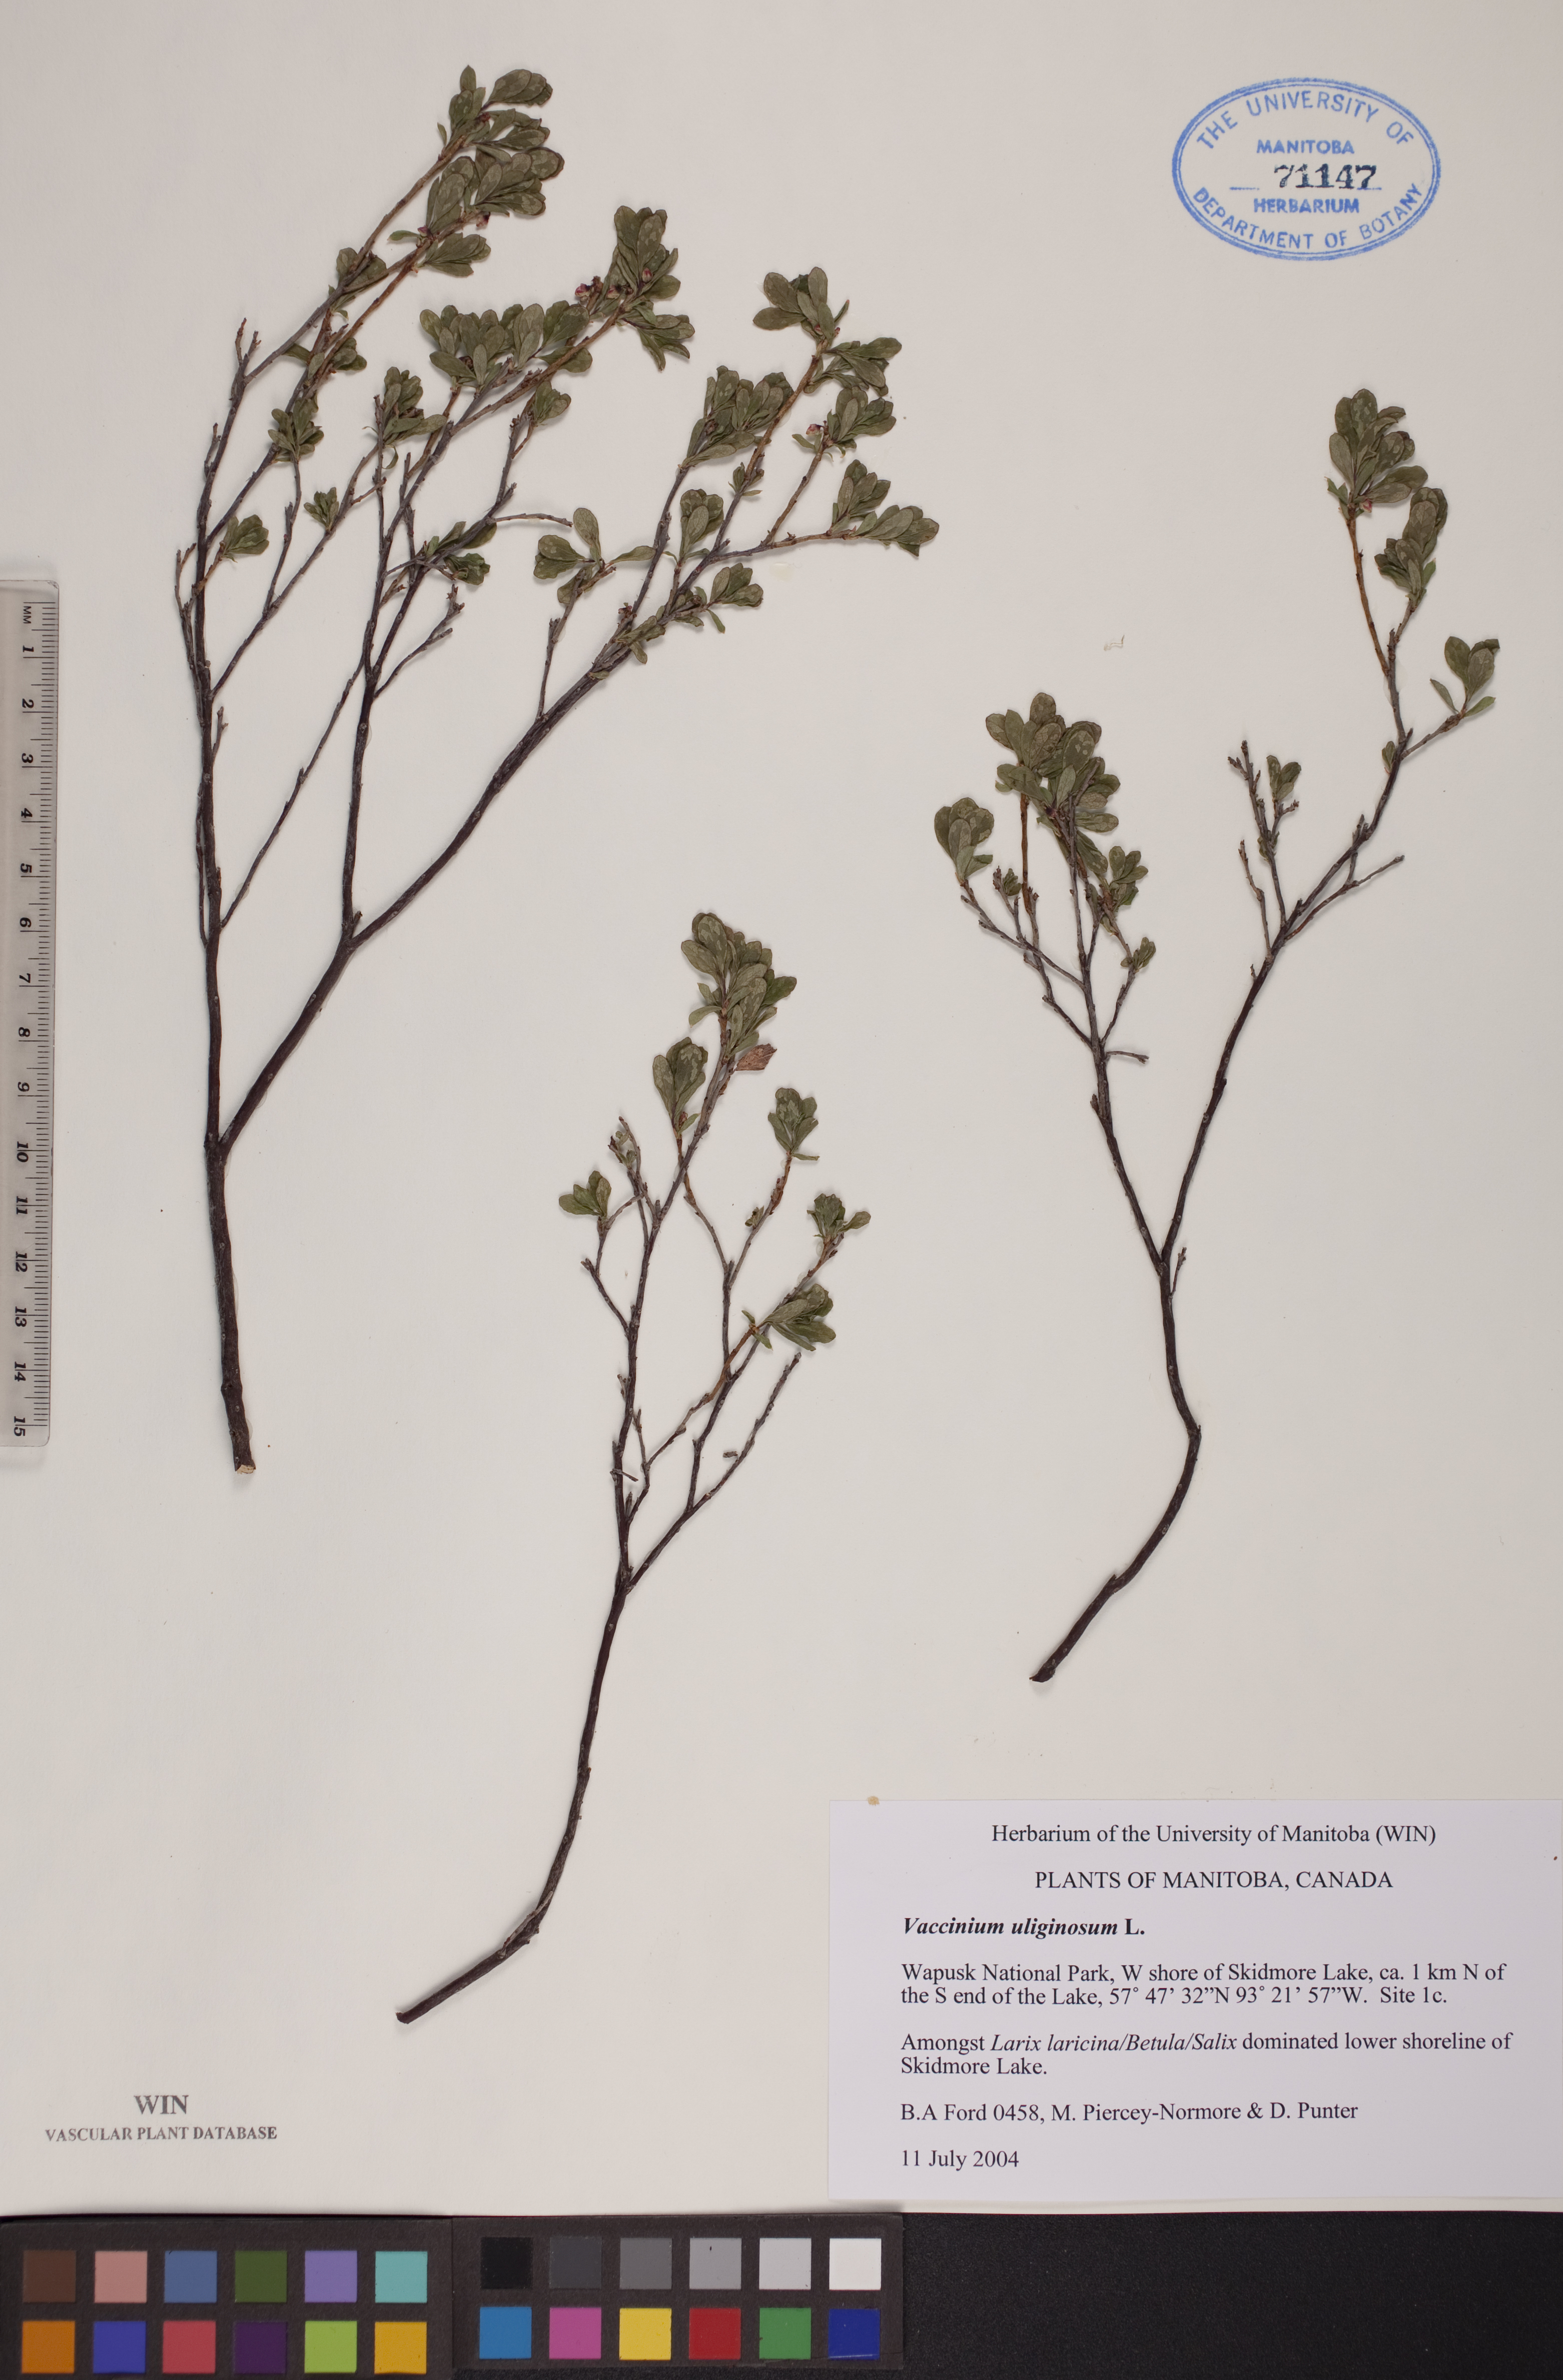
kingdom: Plantae
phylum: Tracheophyta
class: Magnoliopsida
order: Ericales
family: Ericaceae
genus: Vaccinium
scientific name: Vaccinium uliginosum
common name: Bog bilberry
